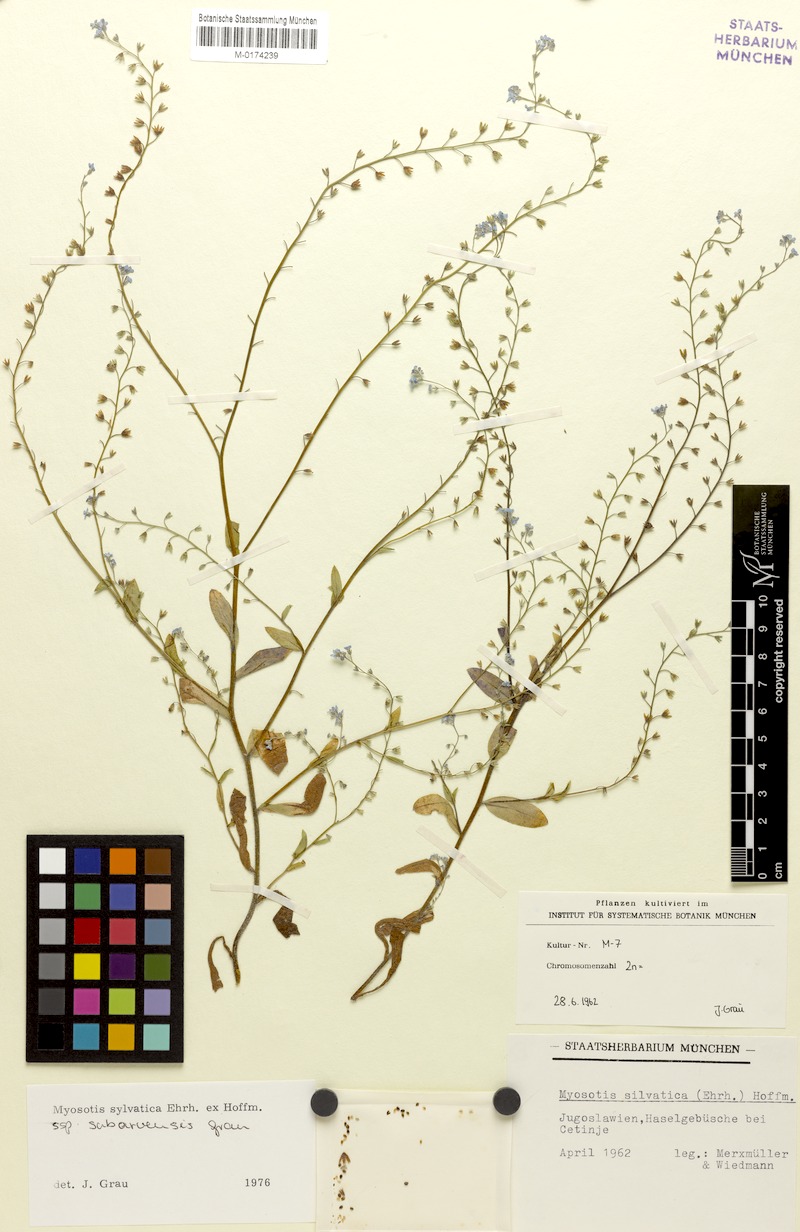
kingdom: Plantae
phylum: Tracheophyta
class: Magnoliopsida
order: Boraginales
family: Boraginaceae
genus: Myosotis
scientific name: Myosotis sylvatica
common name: Wood forget-me-not
